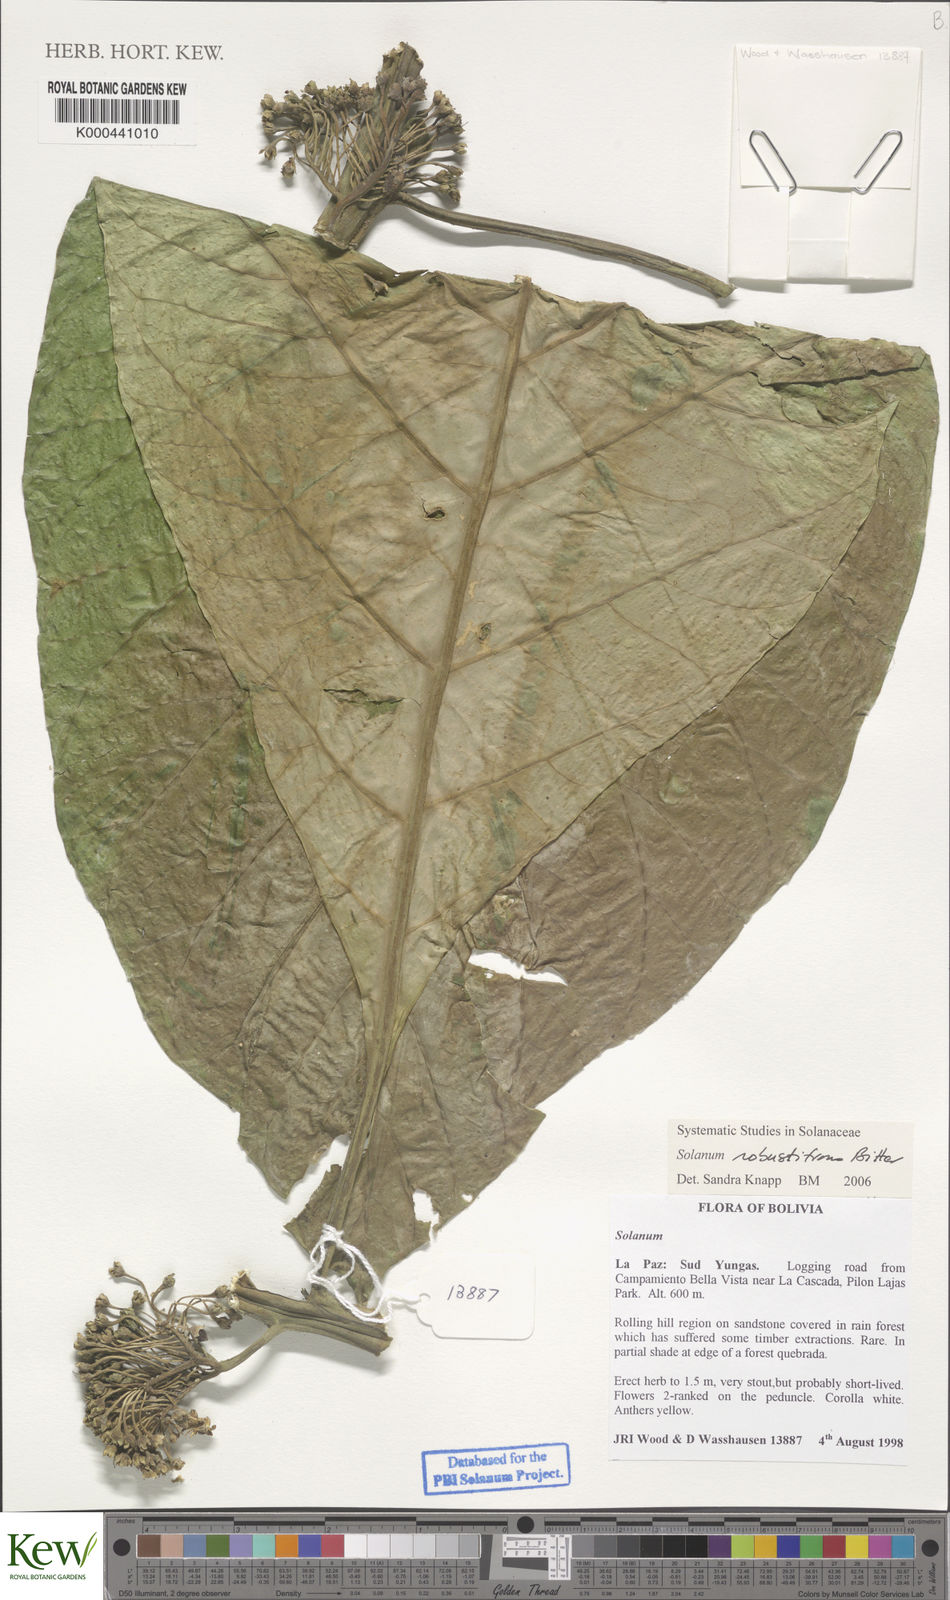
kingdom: Plantae
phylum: Tracheophyta
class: Magnoliopsida
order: Solanales
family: Solanaceae
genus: Solanum
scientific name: Solanum robustifrons
